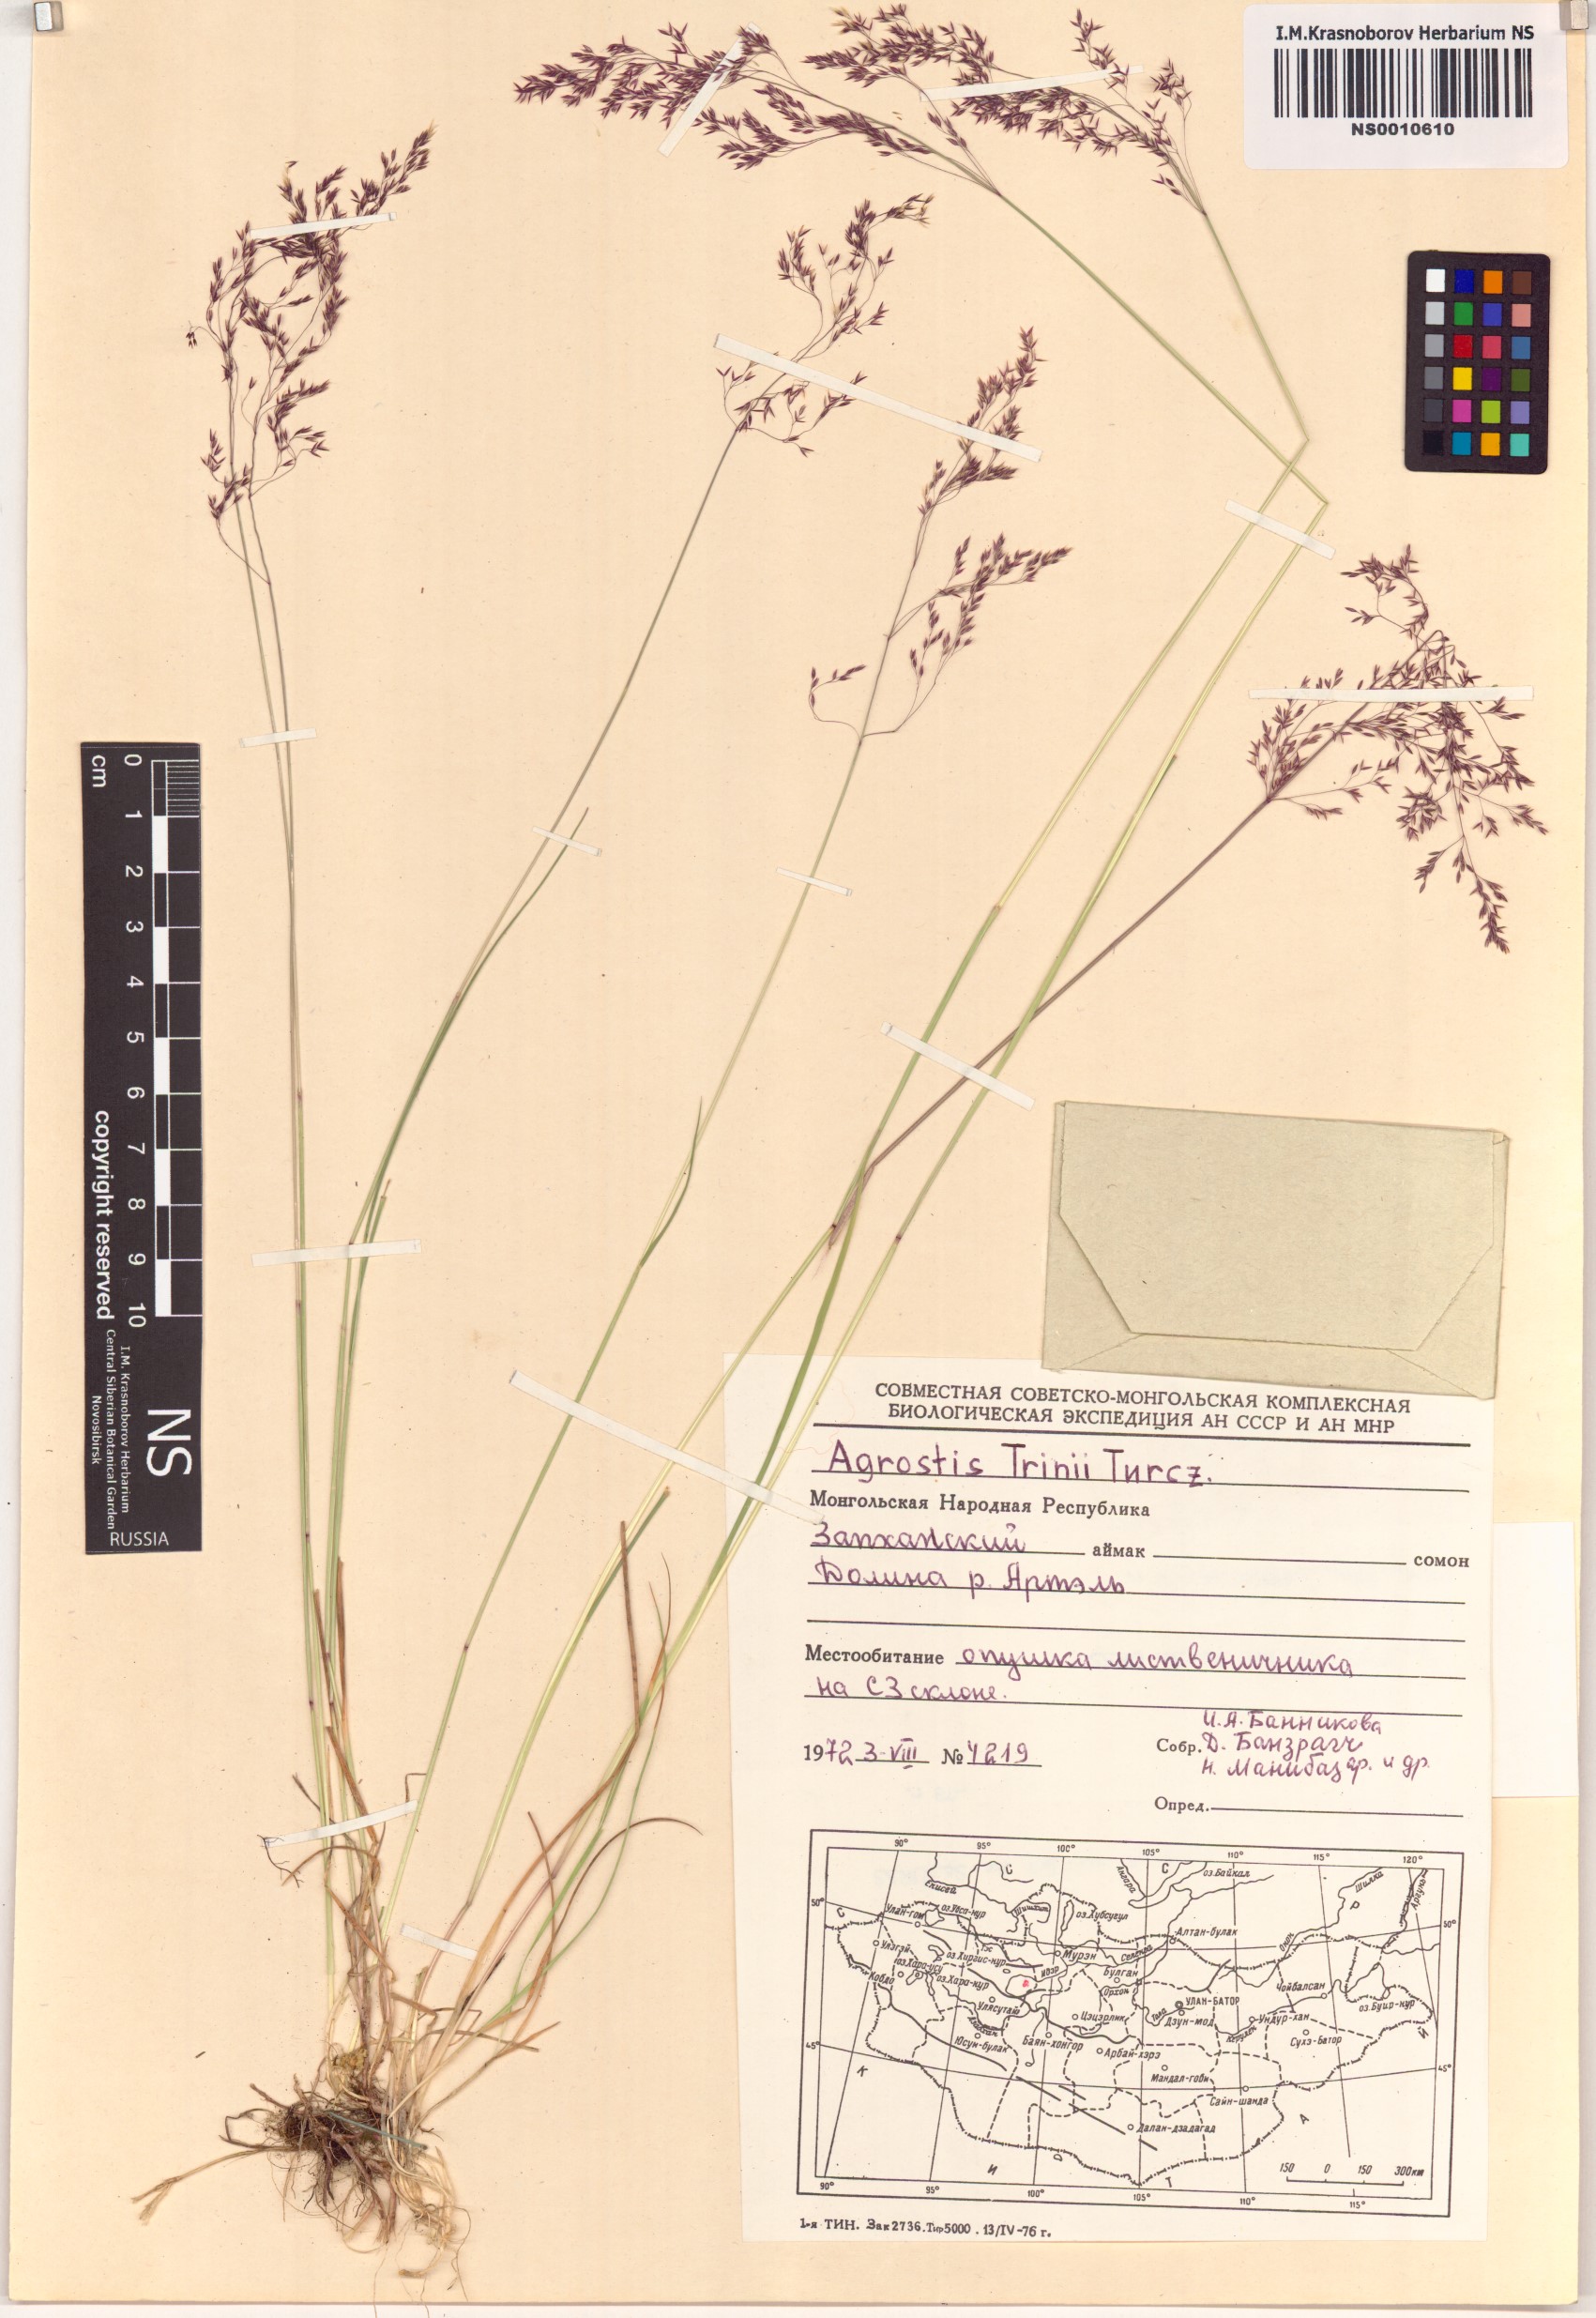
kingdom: Plantae
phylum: Tracheophyta
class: Liliopsida
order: Poales
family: Poaceae
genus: Agrostis
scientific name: Agrostis vinealis
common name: Brown bent
